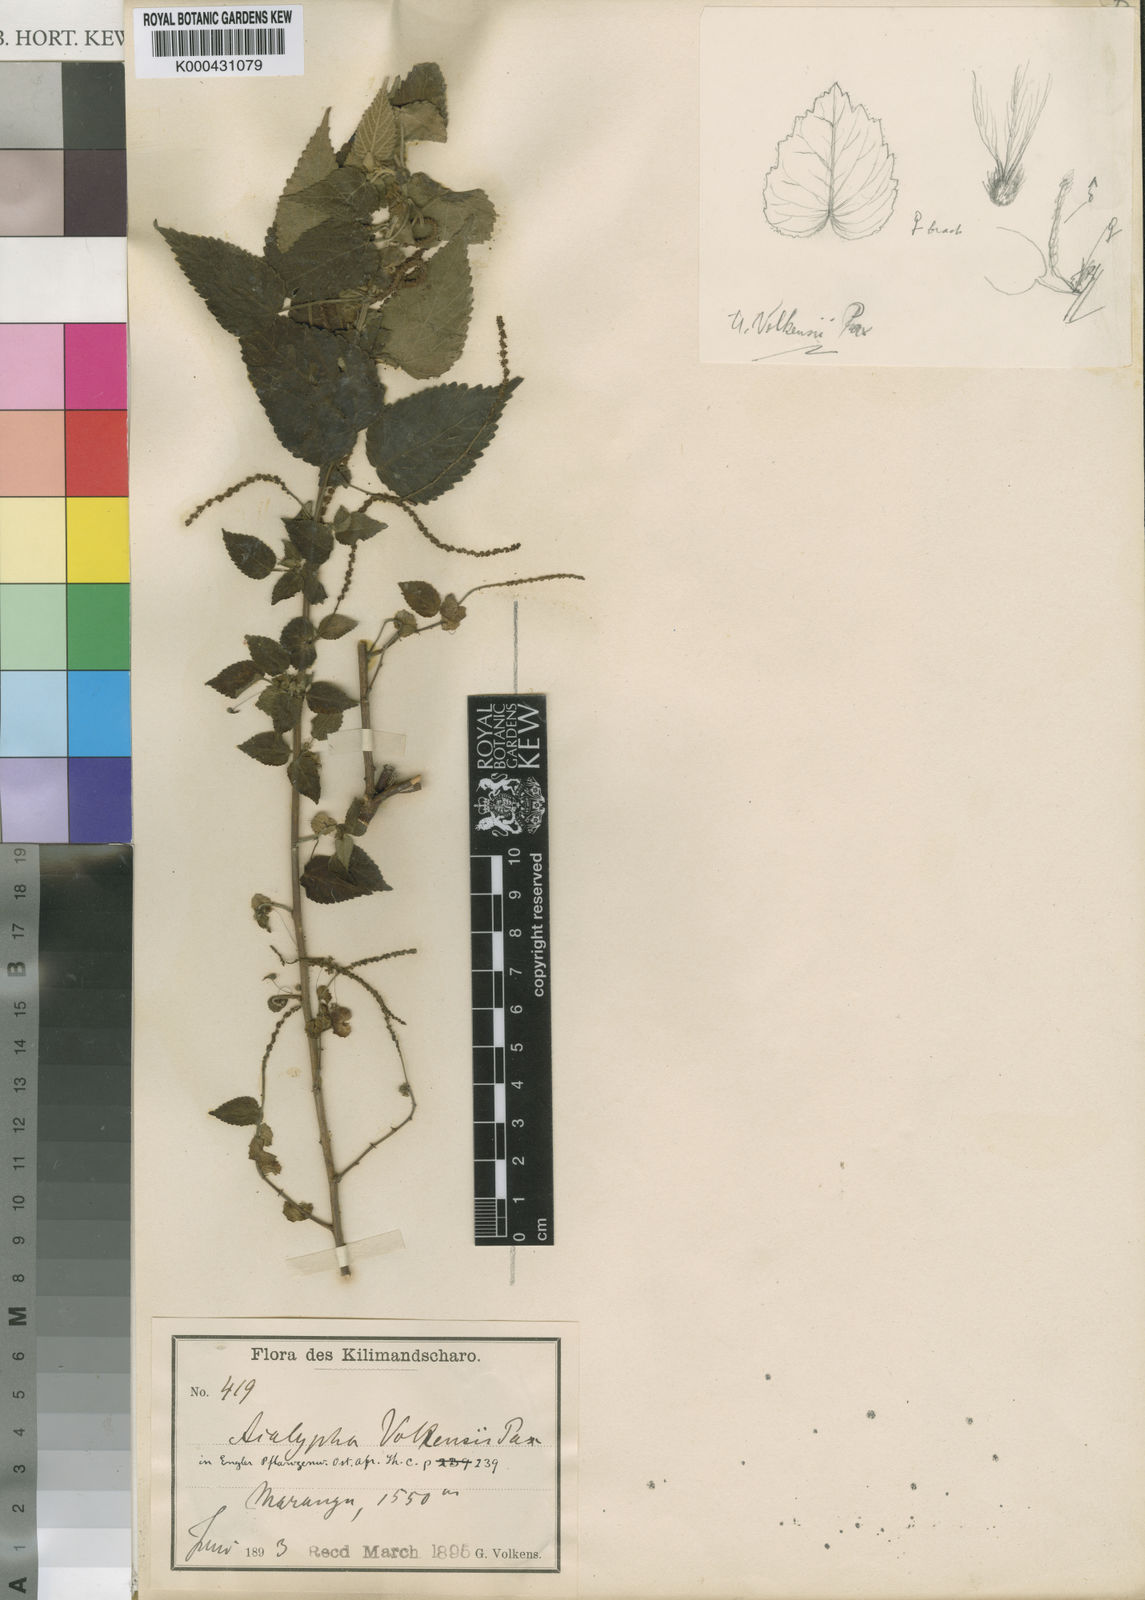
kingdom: Plantae
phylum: Tracheophyta
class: Magnoliopsida
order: Malpighiales
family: Euphorbiaceae
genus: Acalypha
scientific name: Acalypha volkensii
